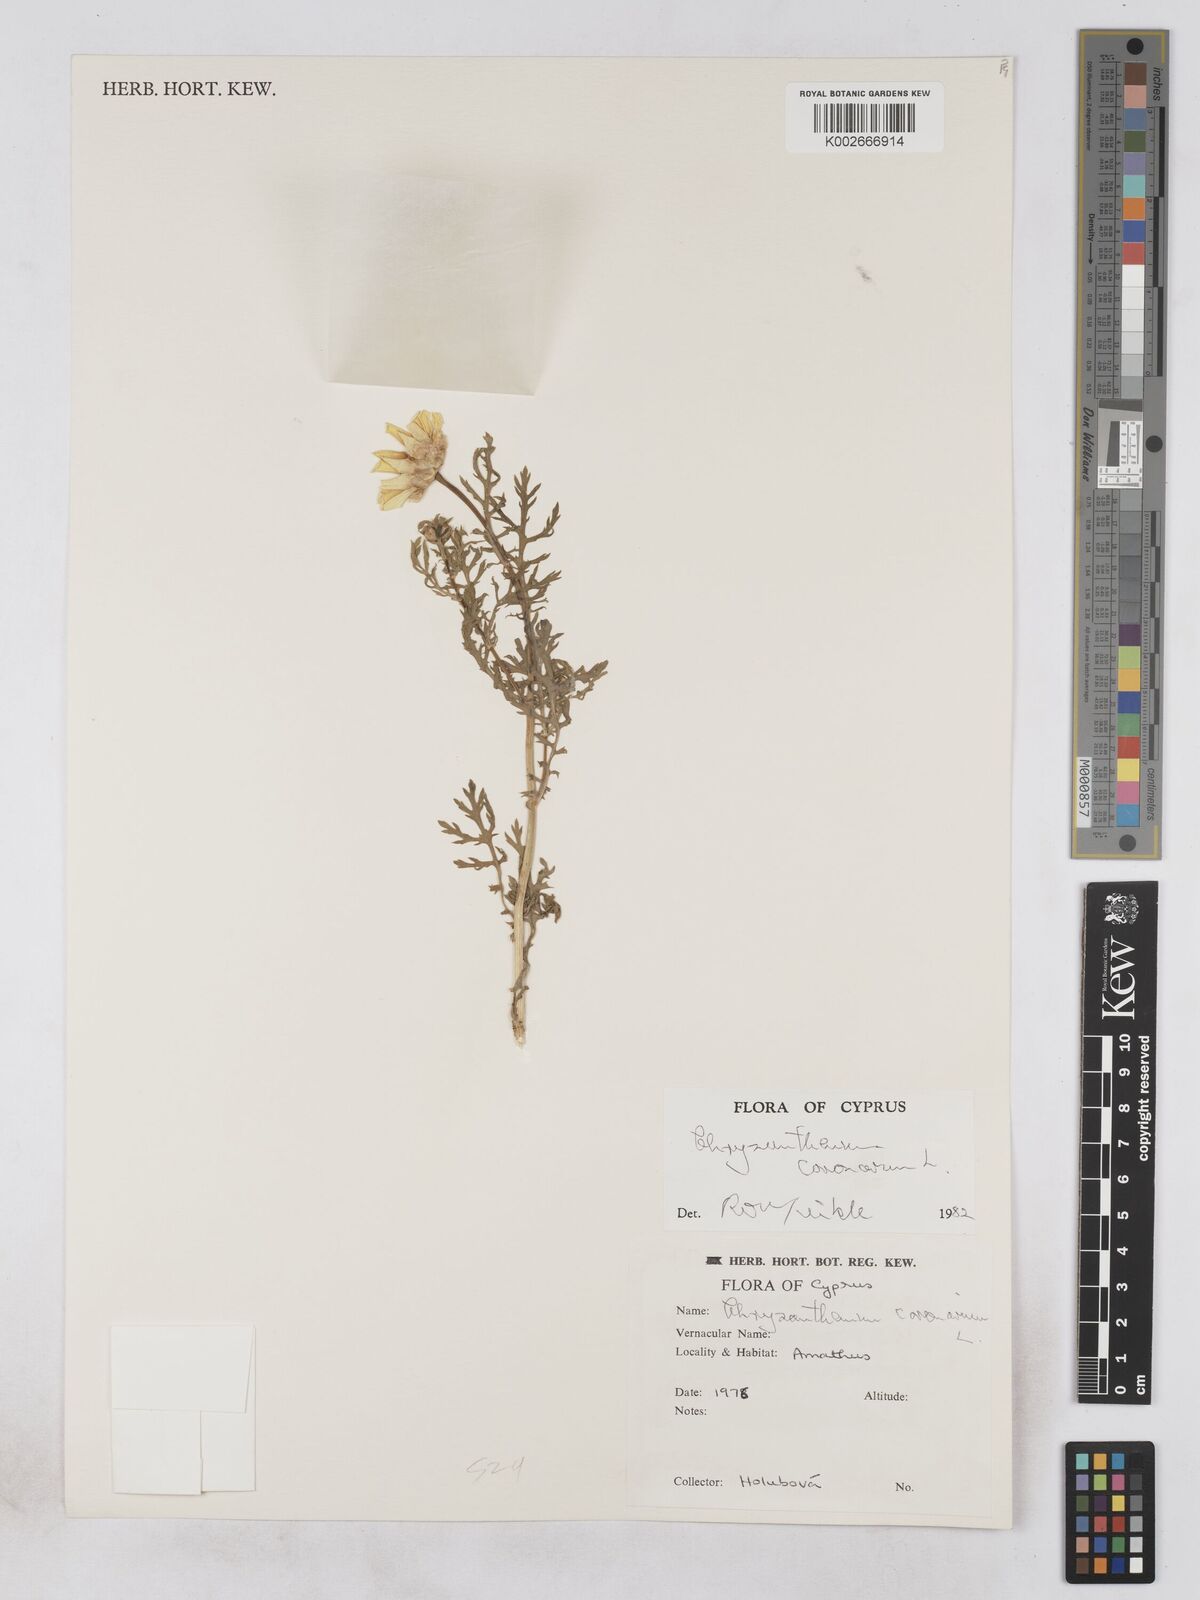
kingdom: Plantae
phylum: Tracheophyta
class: Magnoliopsida
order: Asterales
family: Asteraceae
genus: Glebionis
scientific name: Glebionis coronaria
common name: Crowndaisy
